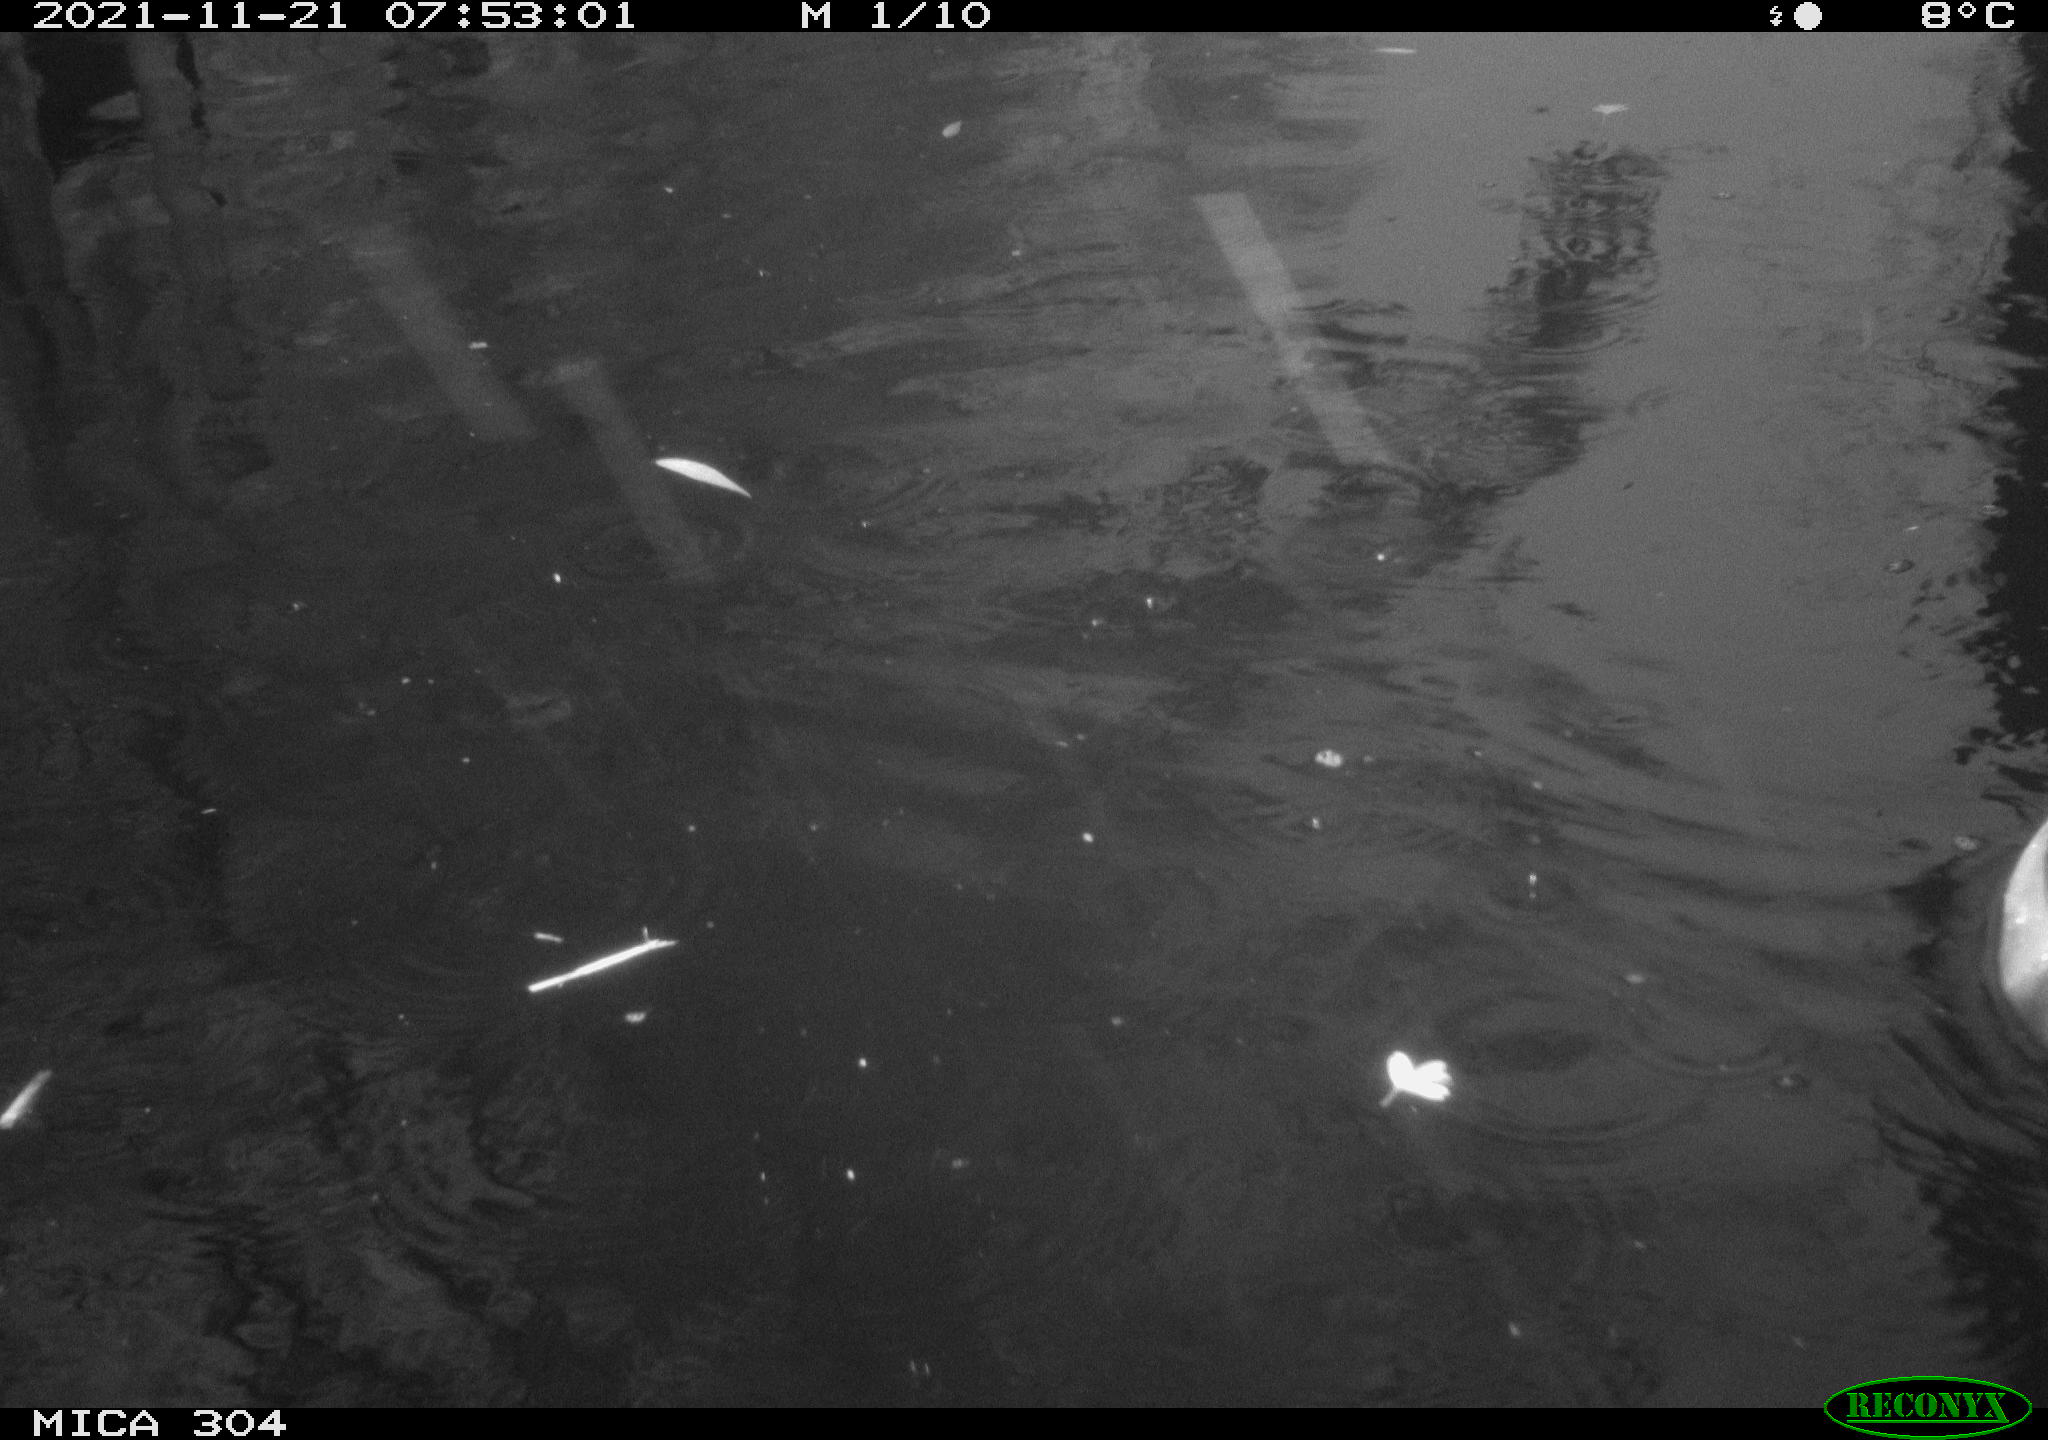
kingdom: Animalia
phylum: Chordata
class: Aves
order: Anseriformes
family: Anatidae
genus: Anas
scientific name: Anas platyrhynchos
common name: Mallard
